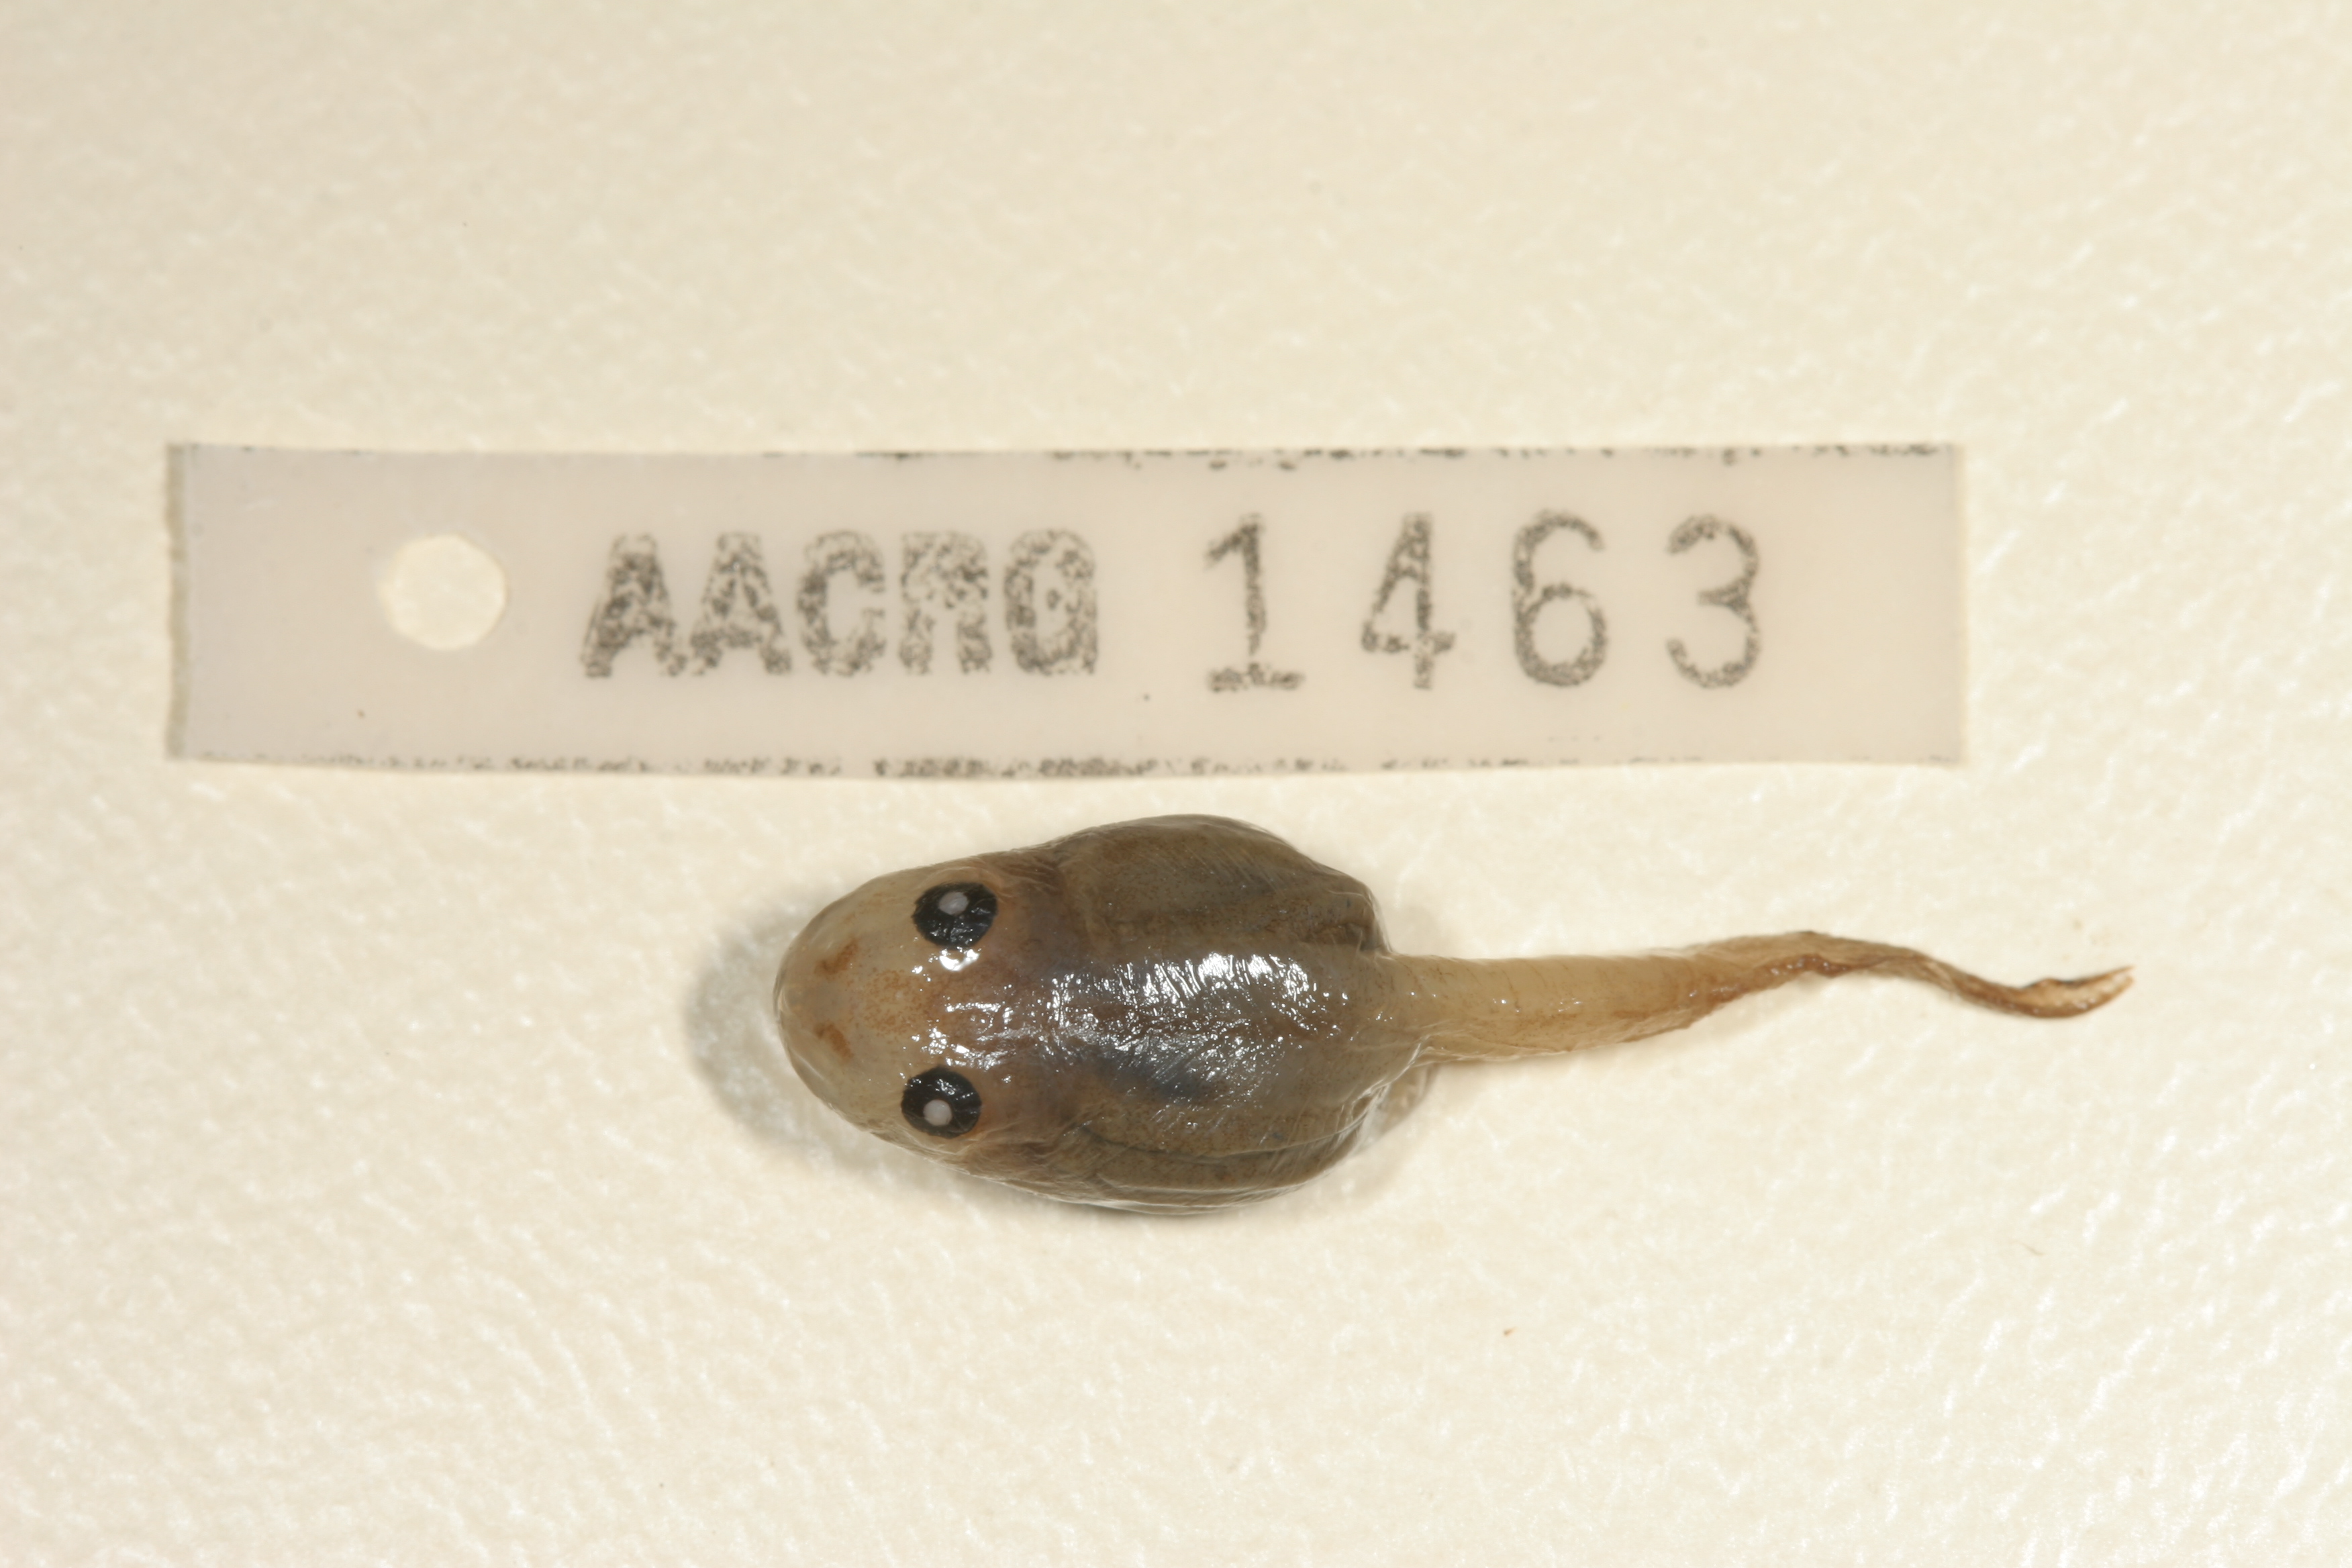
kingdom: Animalia
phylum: Chordata
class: Amphibia
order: Anura
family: Rhacophoridae
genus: Chiromantis
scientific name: Chiromantis xerampelina
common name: African gray treefrog
